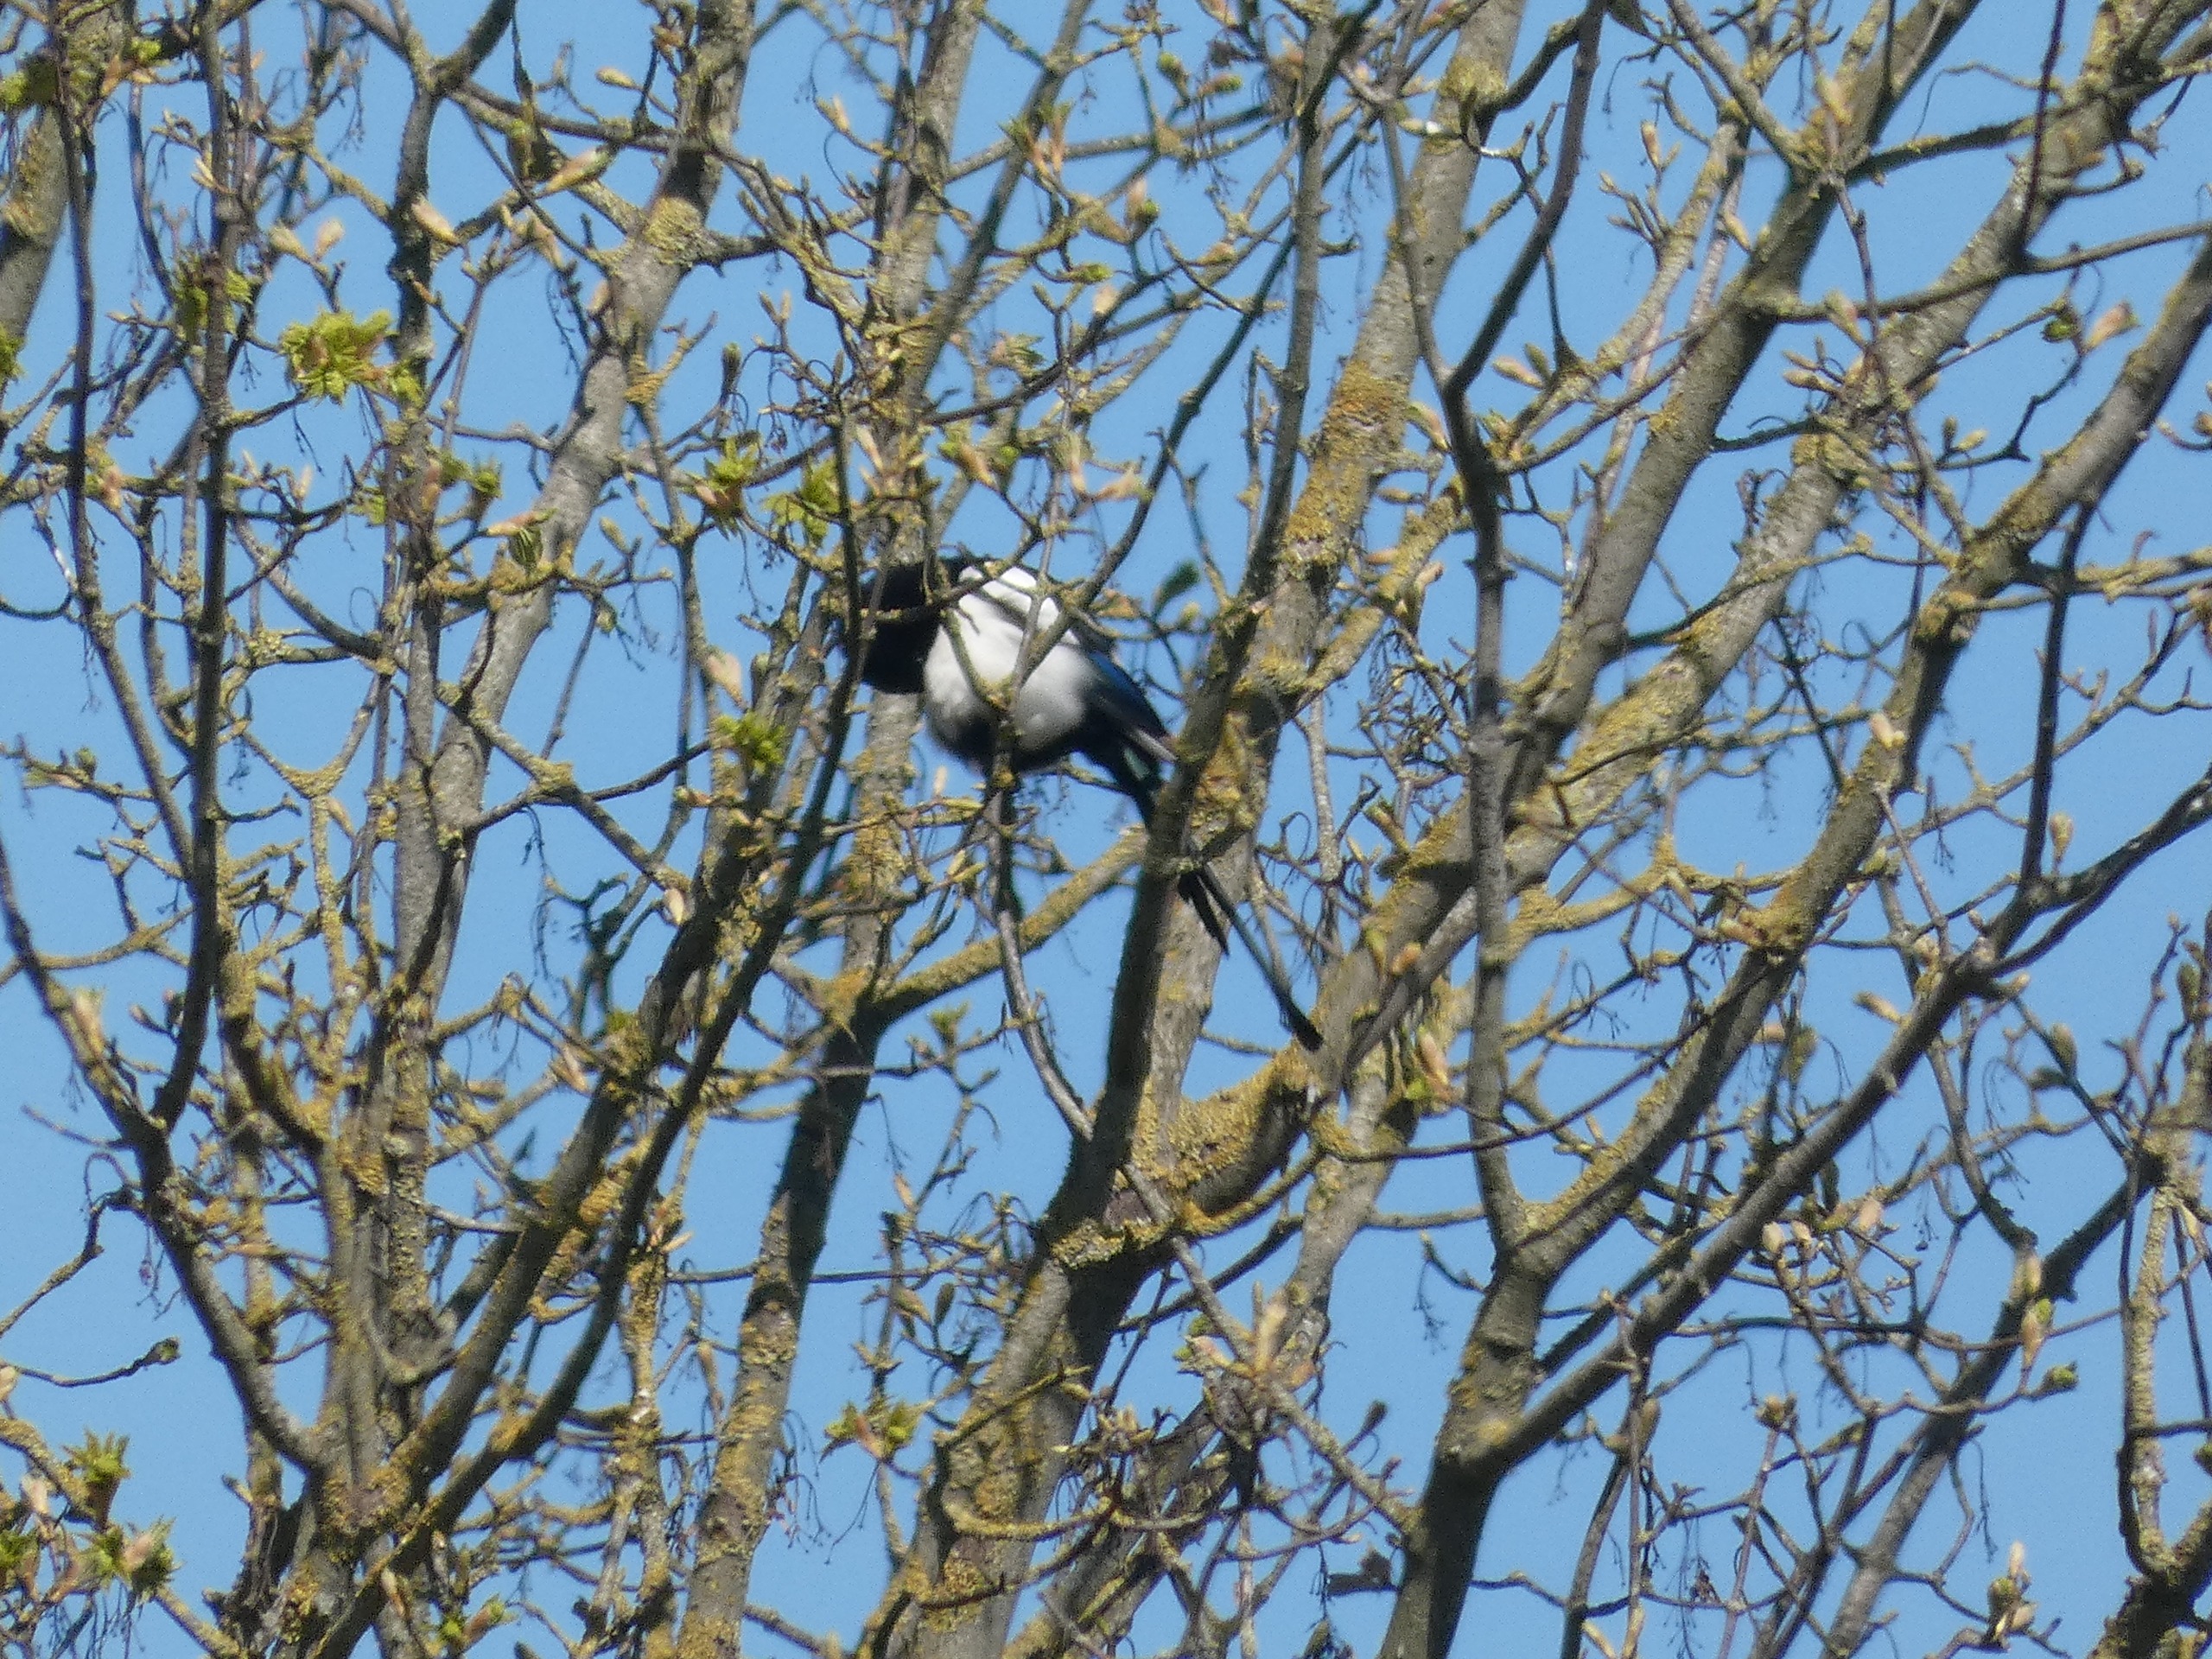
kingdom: Animalia
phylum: Chordata
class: Aves
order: Passeriformes
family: Corvidae
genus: Pica
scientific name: Pica pica
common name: Husskade
